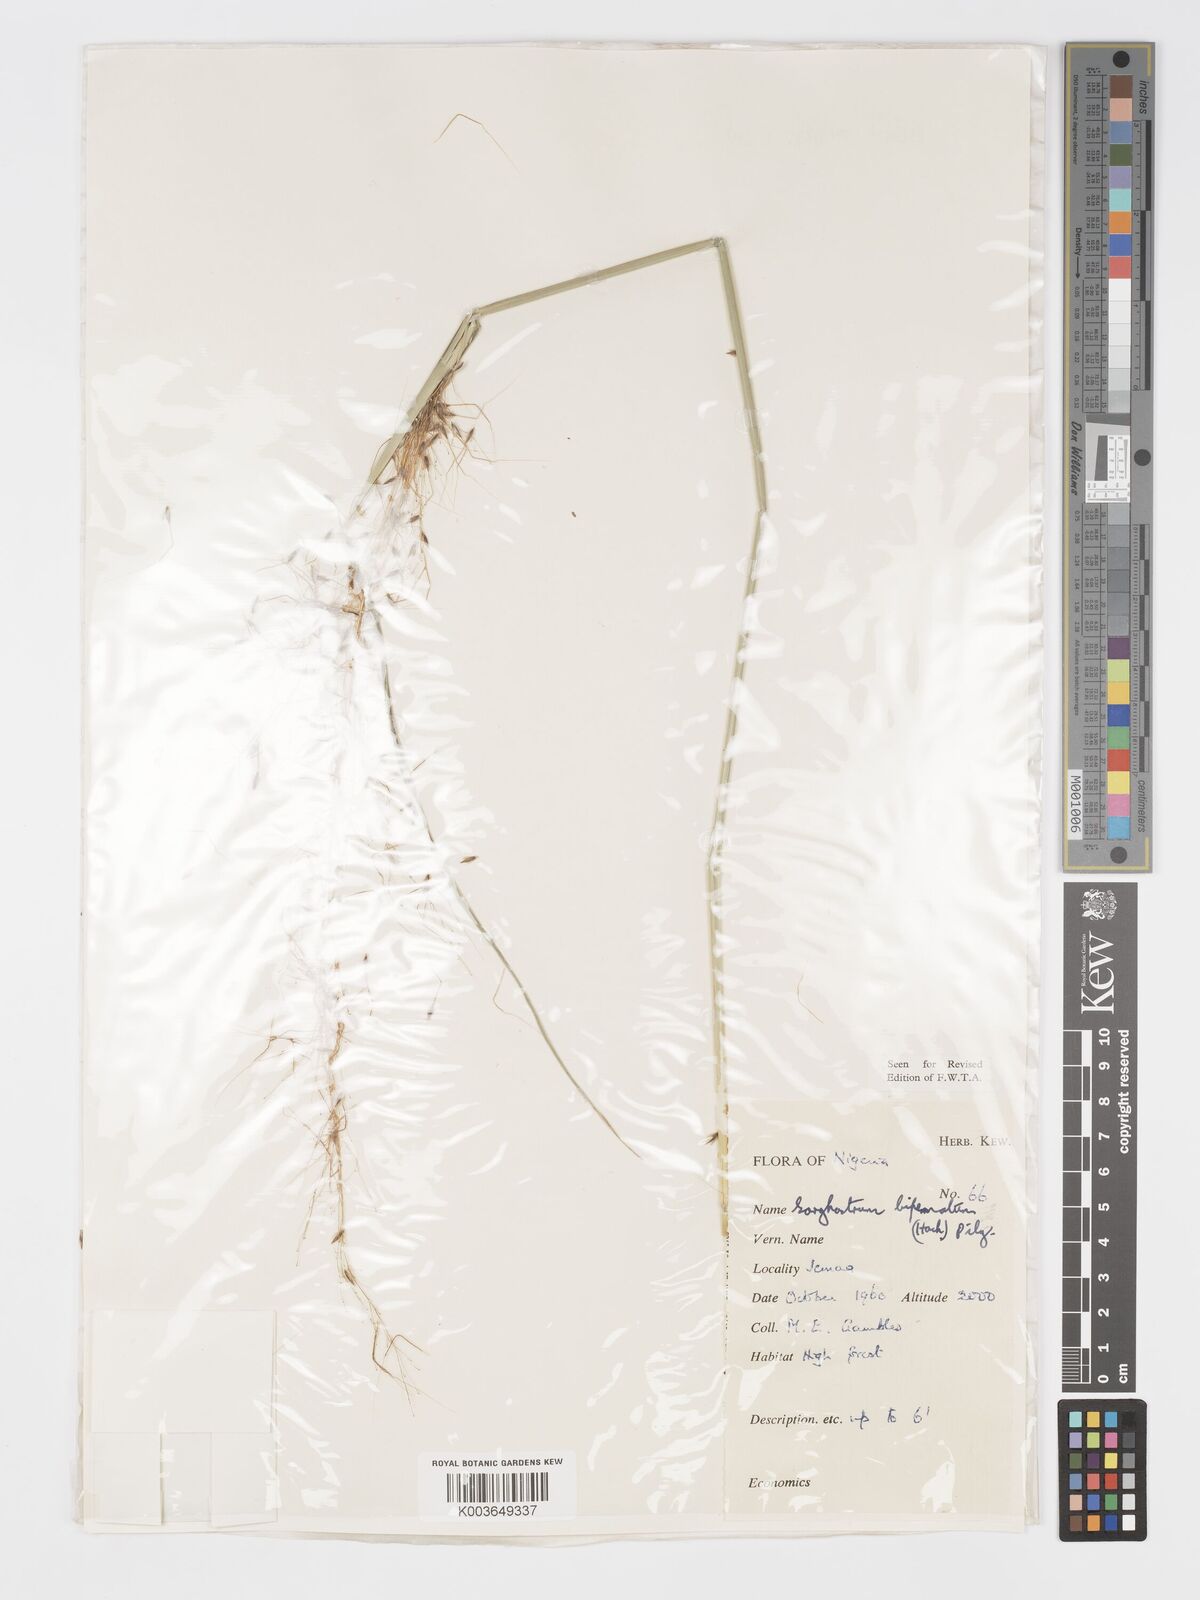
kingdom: Plantae
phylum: Tracheophyta
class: Liliopsida
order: Poales
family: Poaceae
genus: Sorghastrum
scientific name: Sorghastrum incompletum
